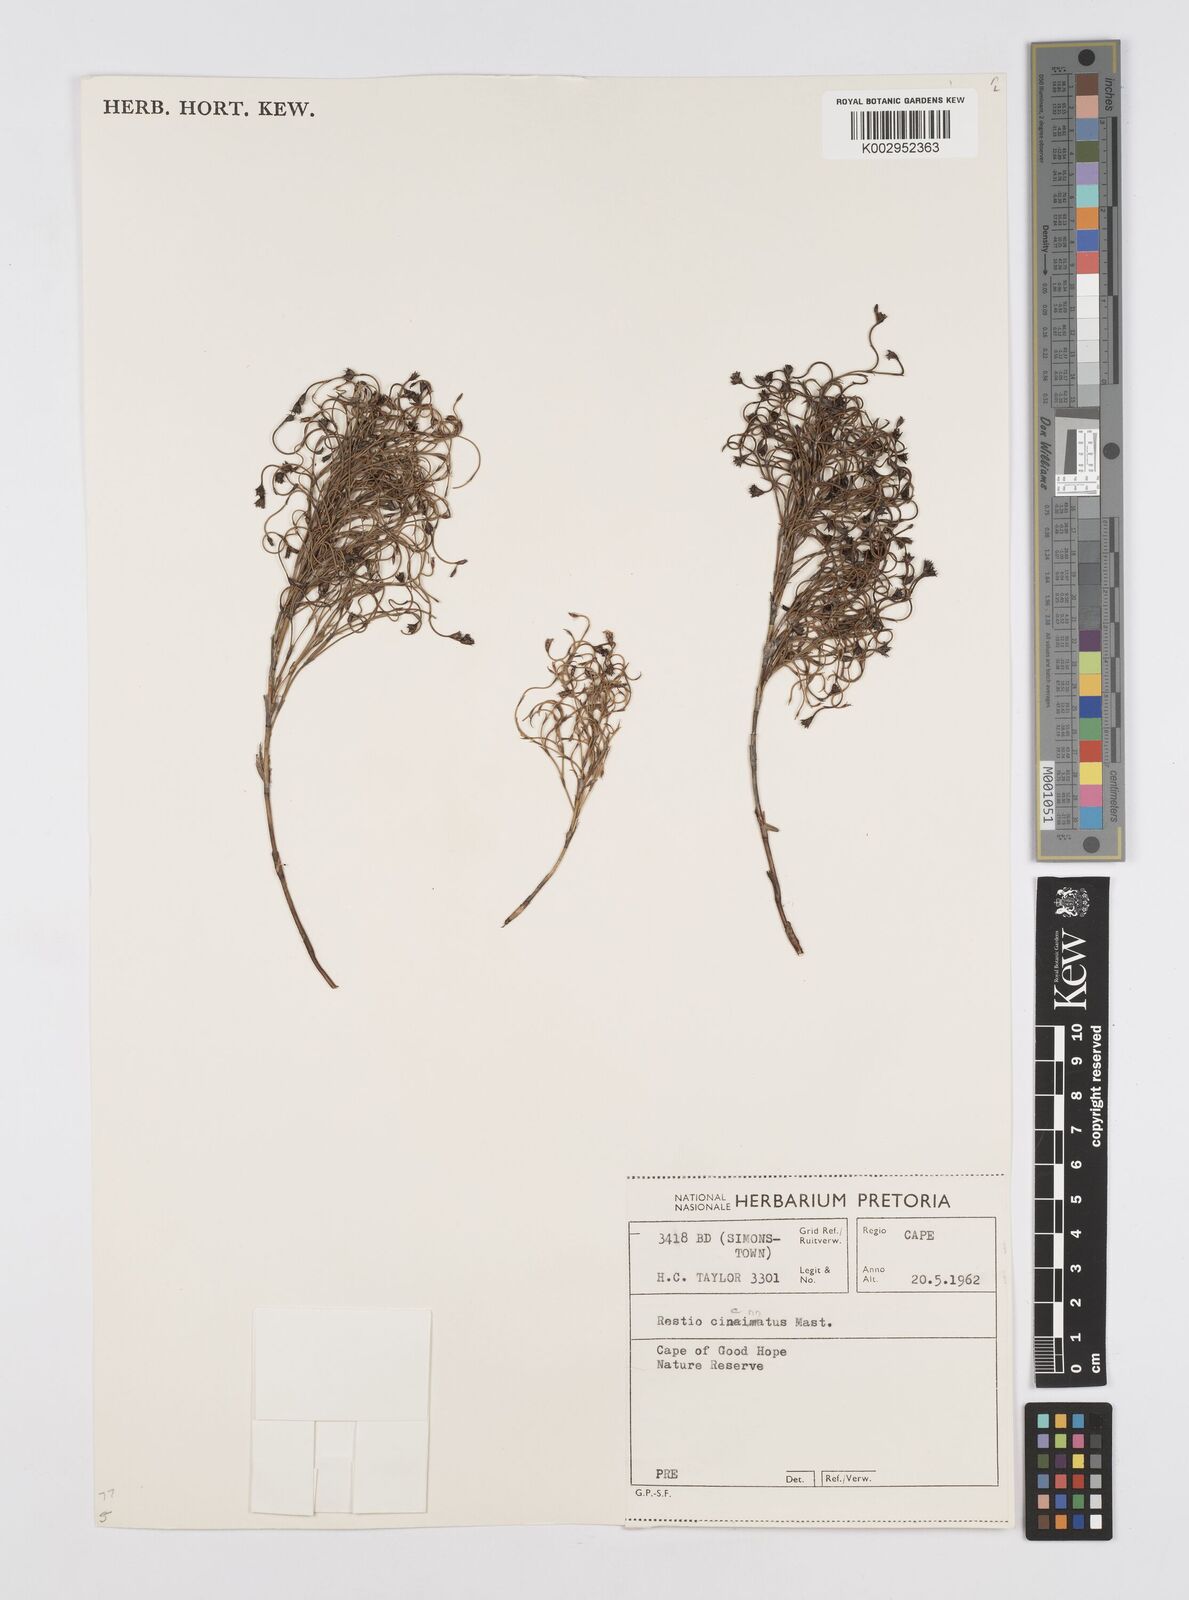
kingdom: Plantae
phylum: Tracheophyta
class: Liliopsida
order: Poales
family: Restionaceae
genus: Restio
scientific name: Restio cincinnatus
